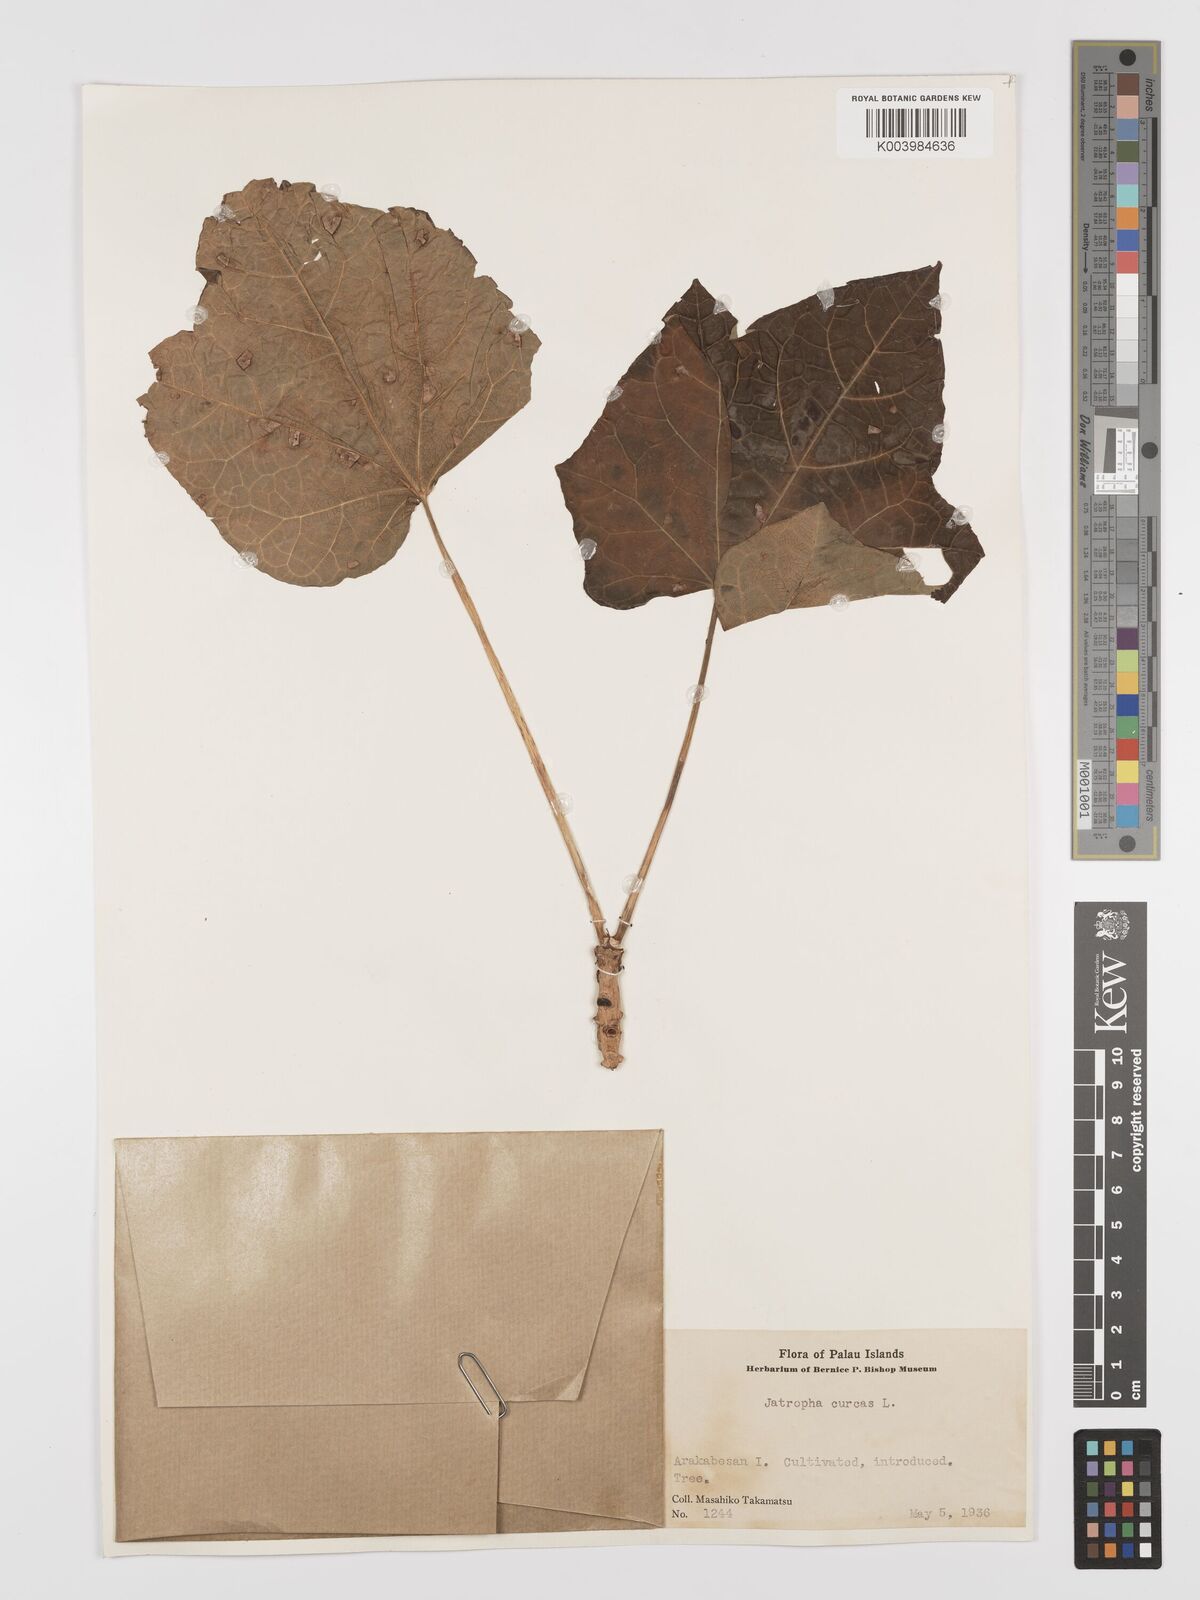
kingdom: Plantae
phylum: Tracheophyta
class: Magnoliopsida
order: Malpighiales
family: Euphorbiaceae
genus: Jatropha
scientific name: Jatropha curcas
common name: Barbados nut
